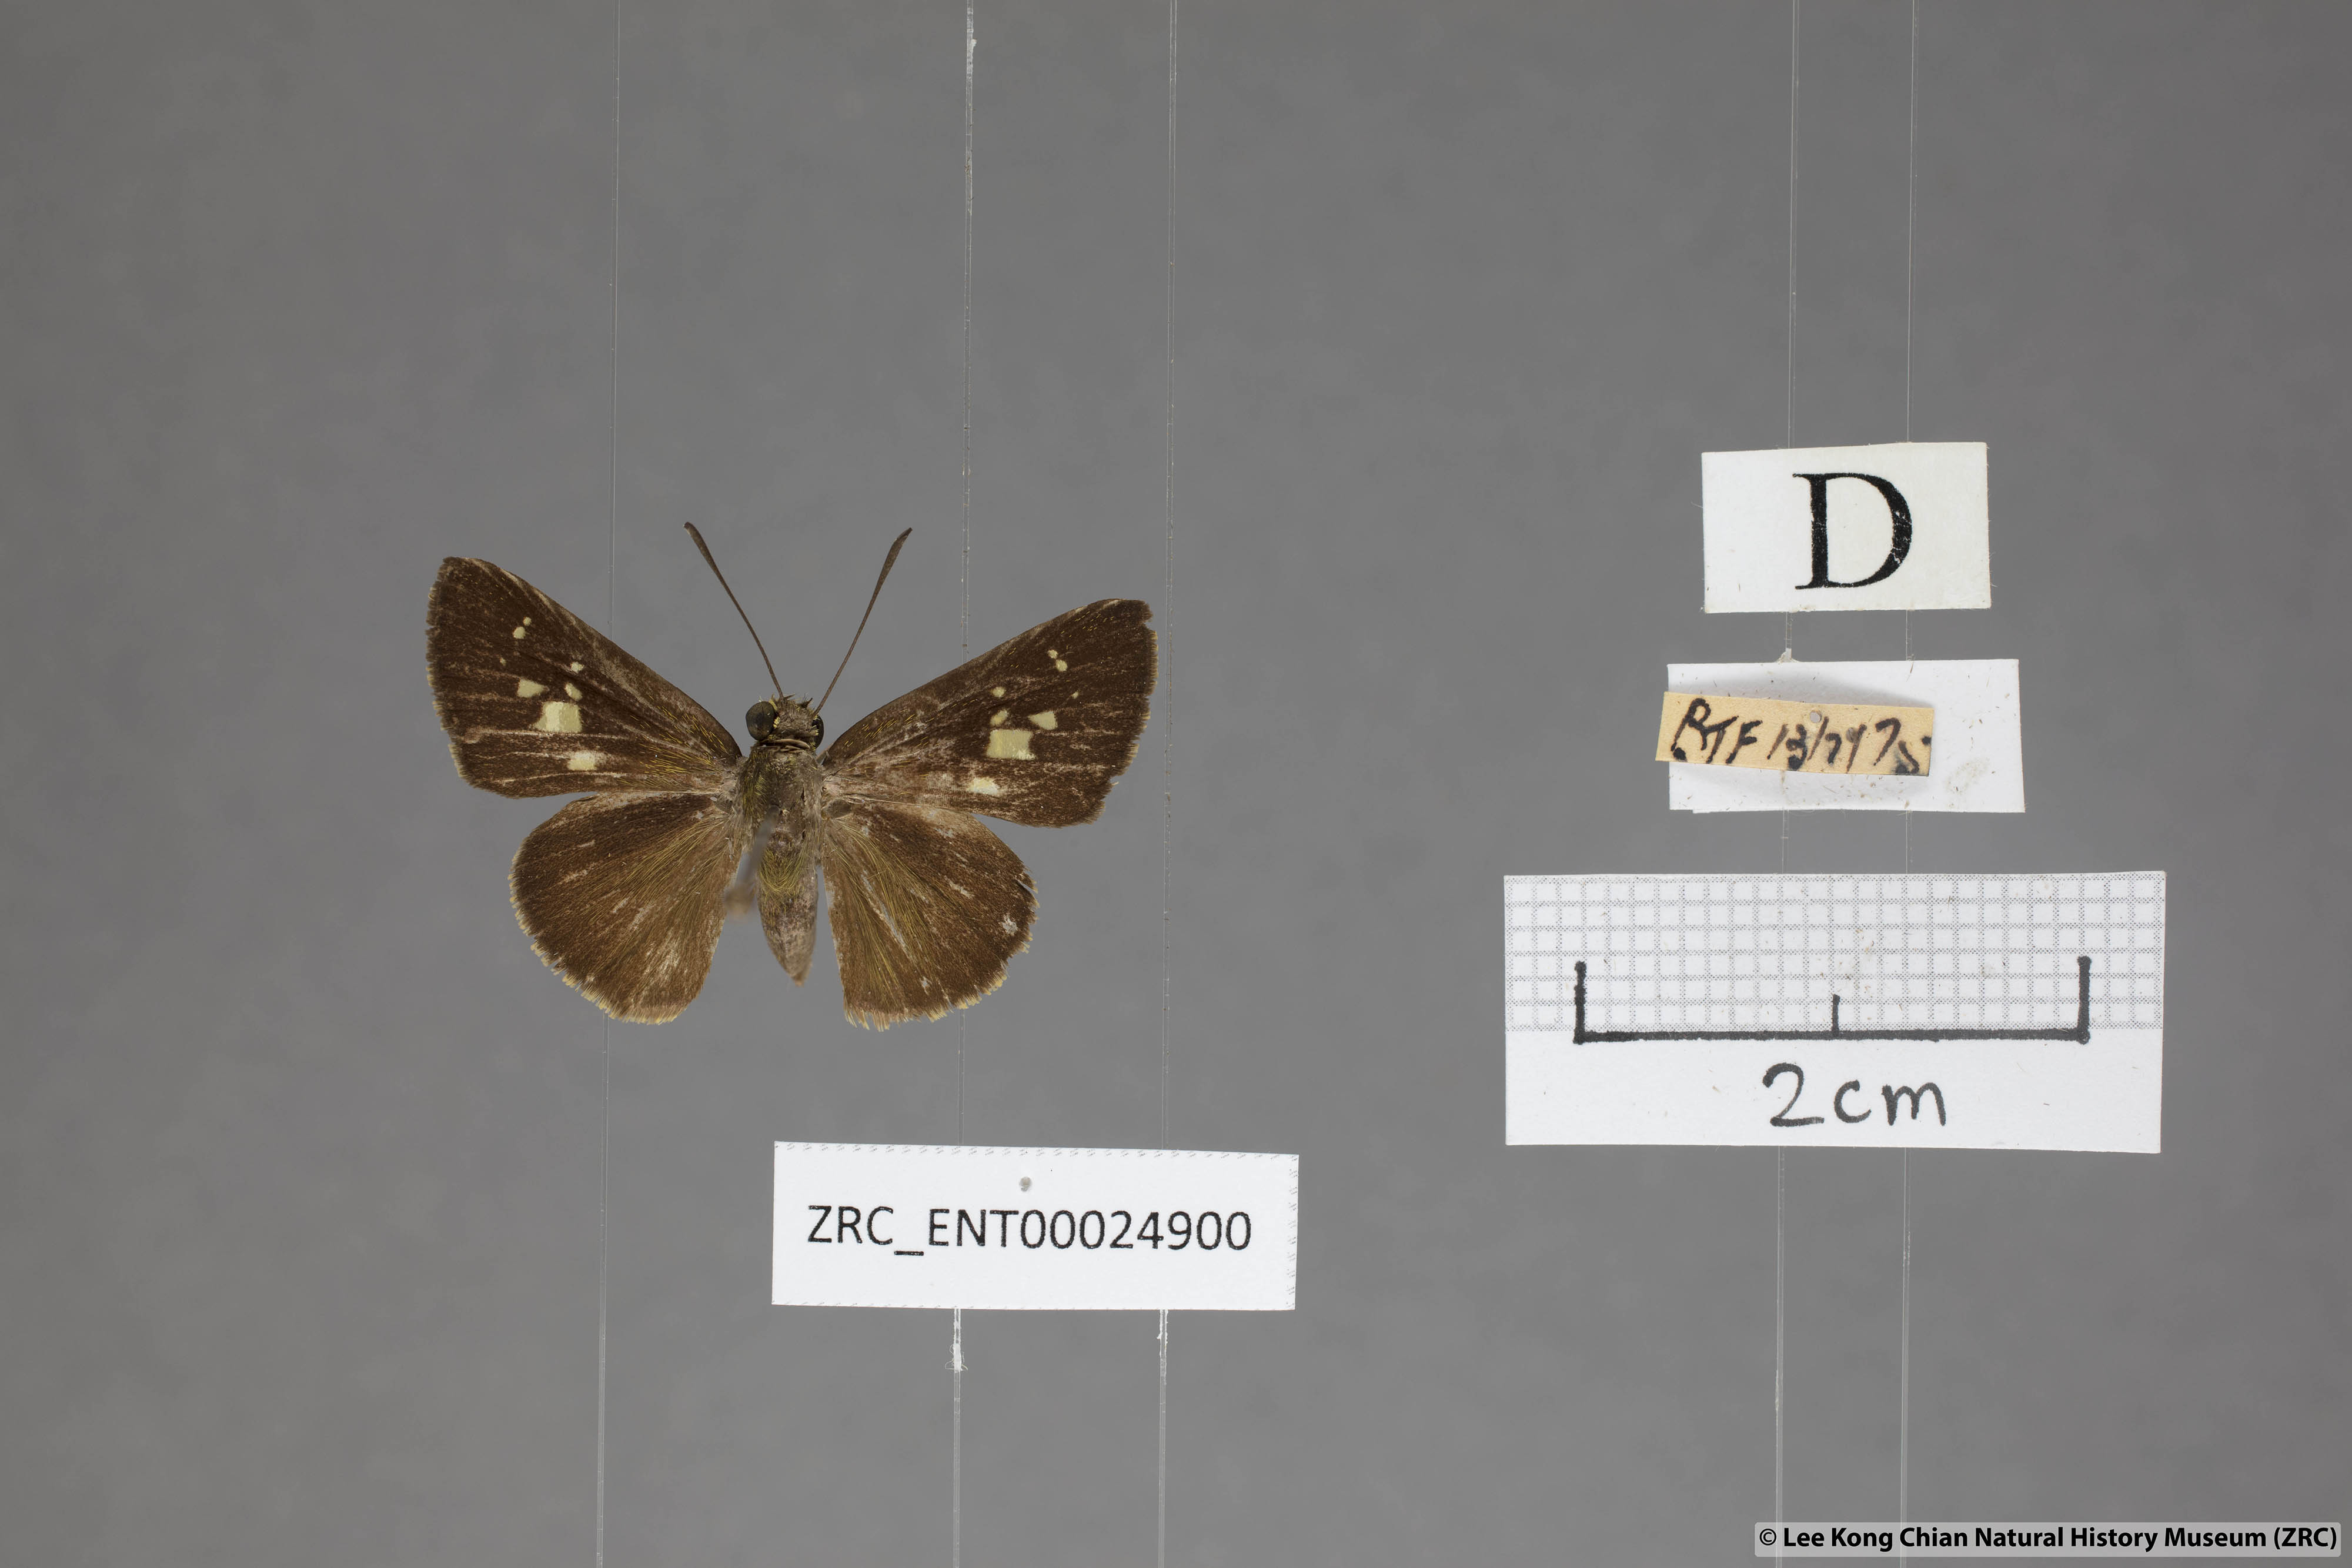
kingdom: Animalia
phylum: Arthropoda
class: Insecta
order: Lepidoptera
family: Hesperiidae
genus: Isma
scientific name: Isma
